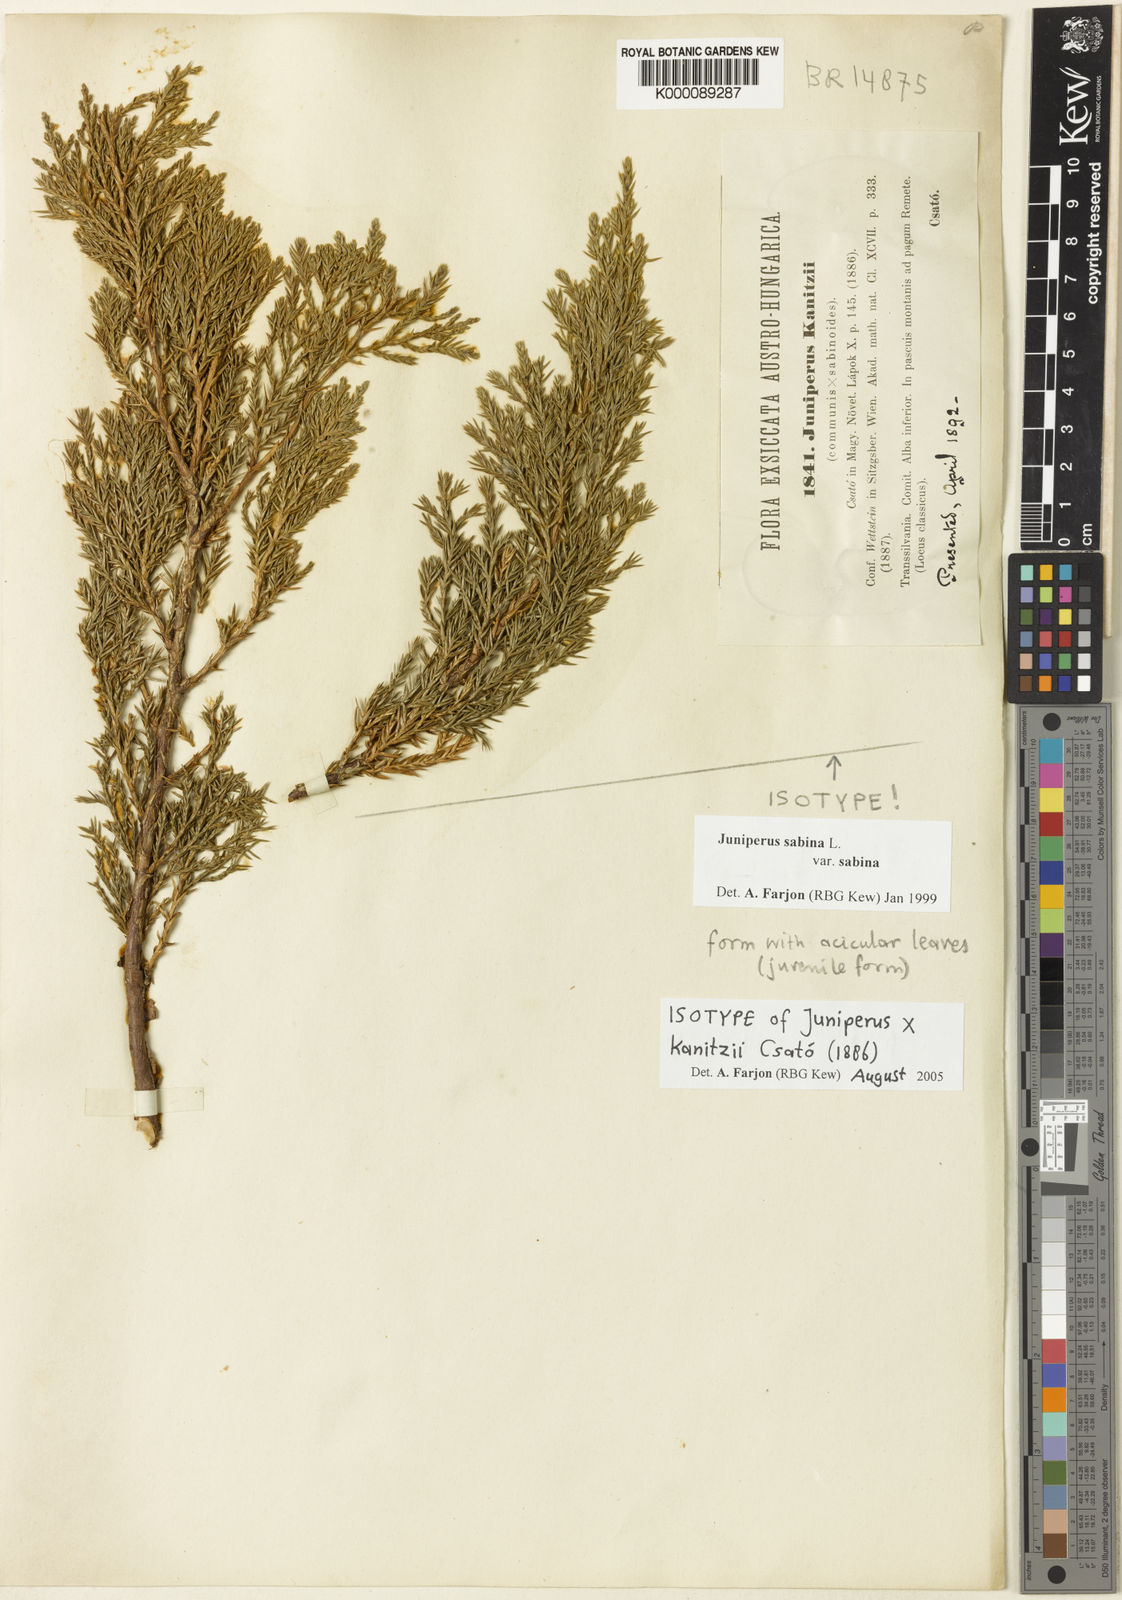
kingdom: Plantae
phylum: Tracheophyta
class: Pinopsida
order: Pinales
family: Cupressaceae
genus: Juniperus
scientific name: Juniperus sabina
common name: Savin
